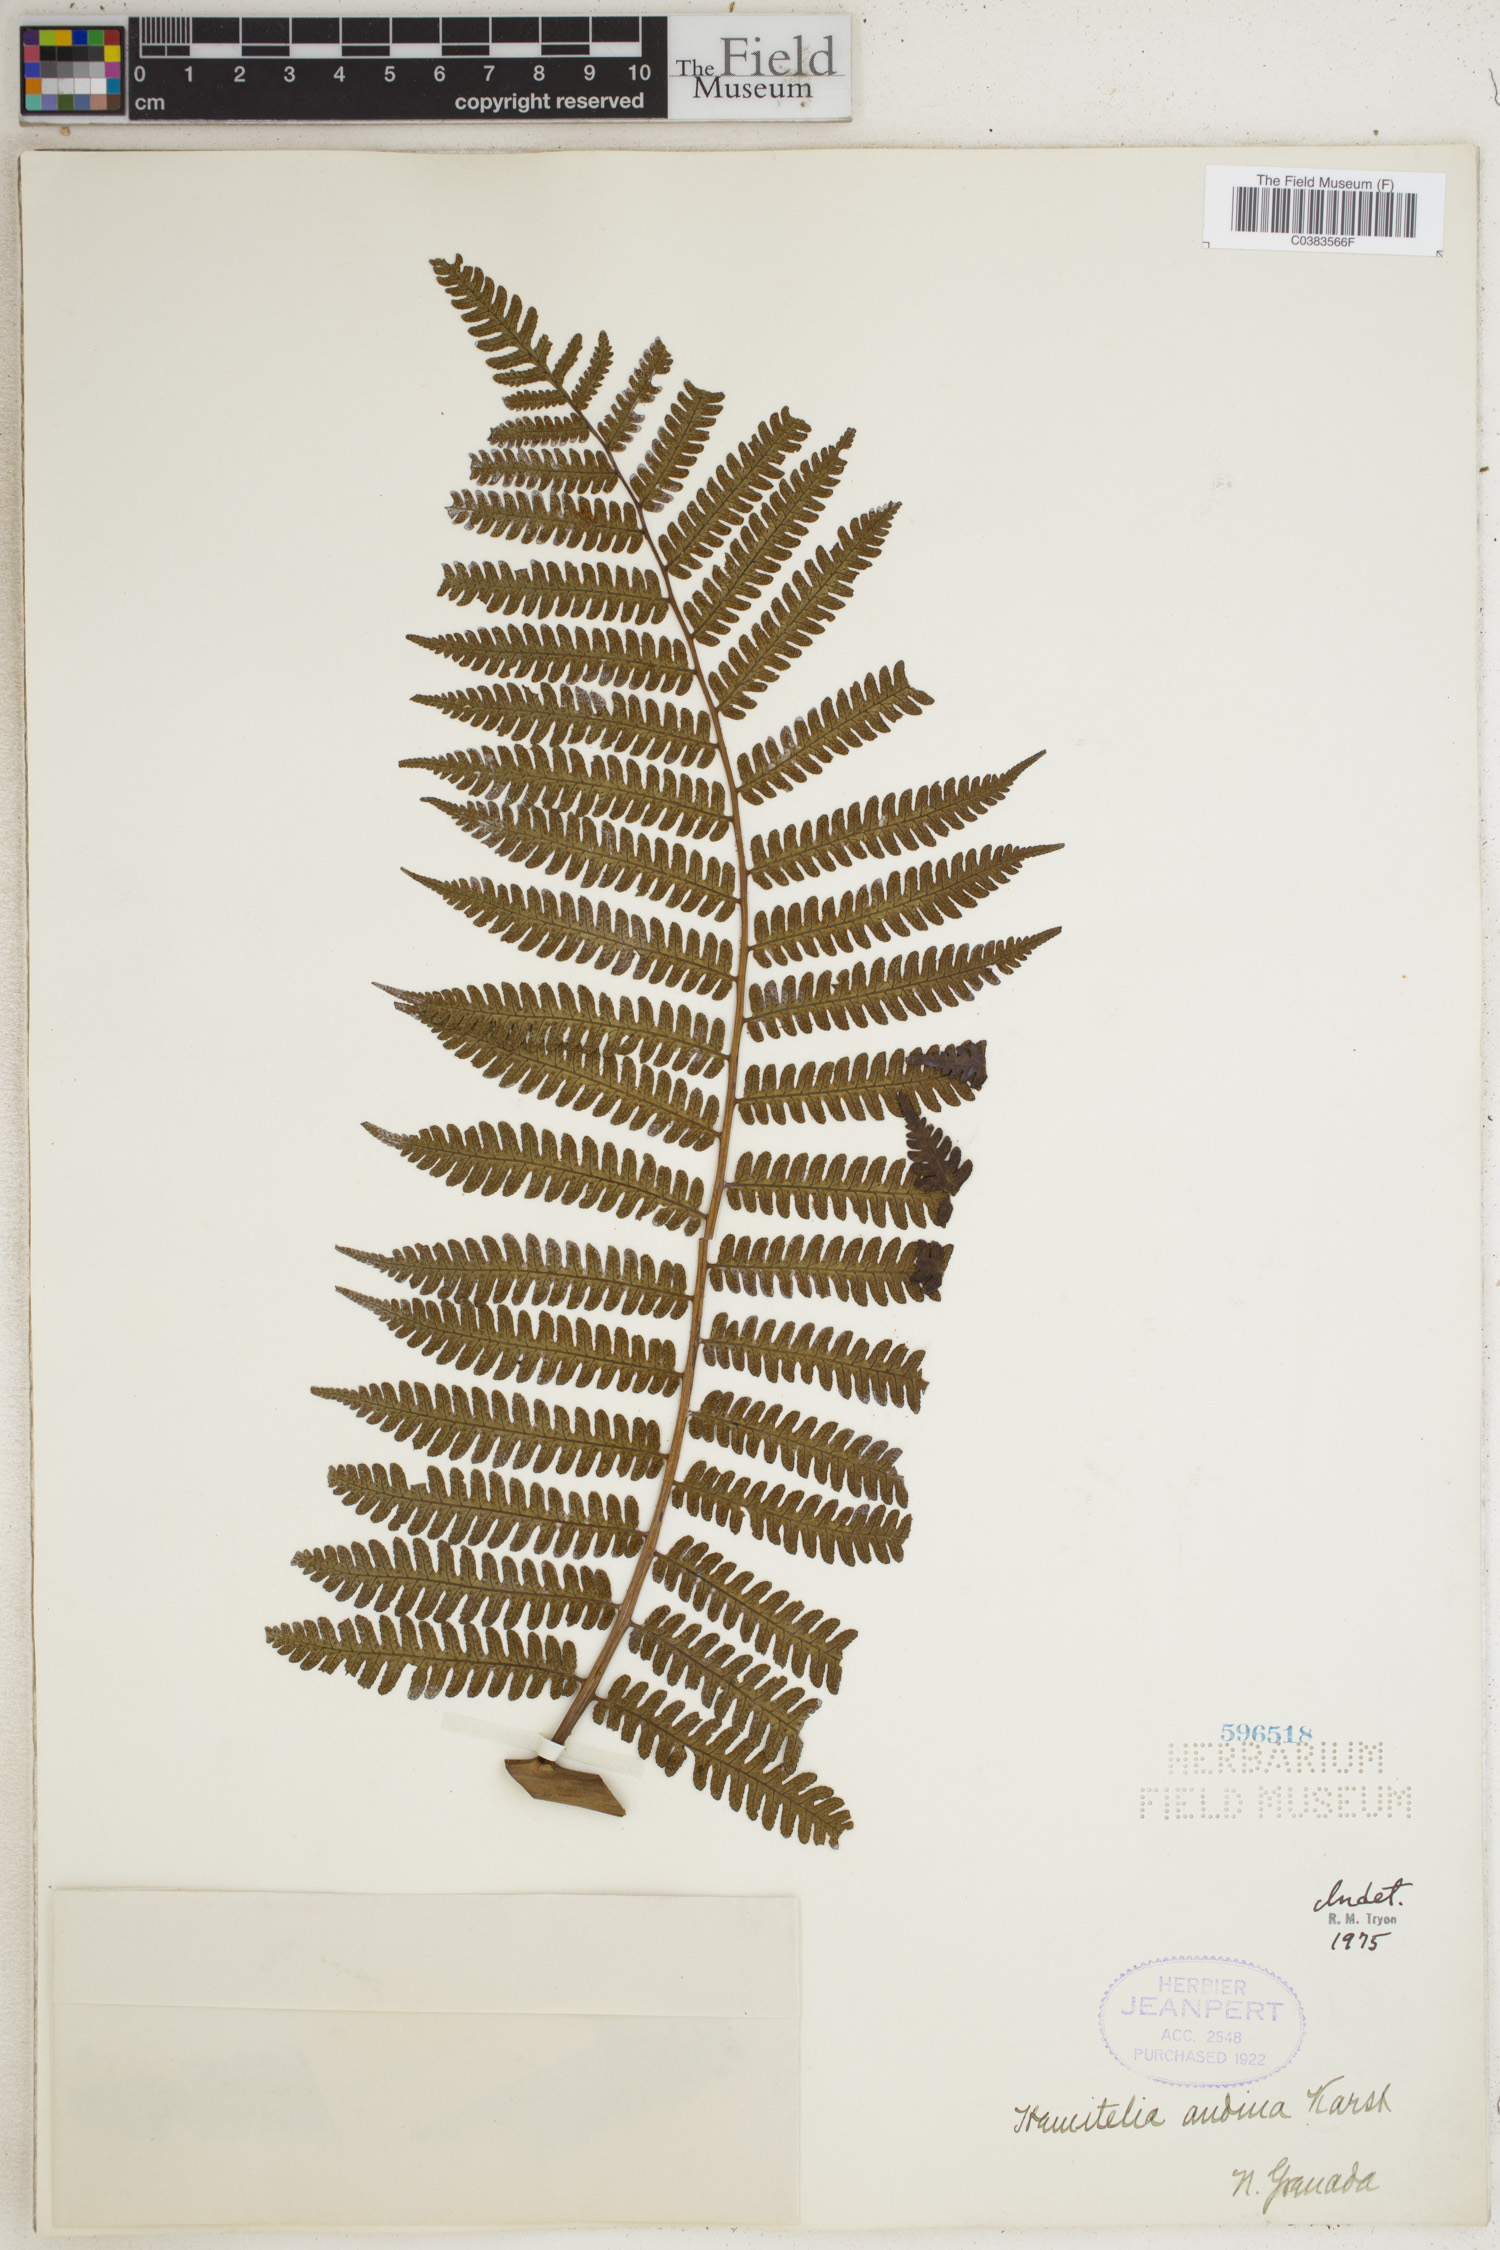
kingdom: Plantae
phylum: Tracheophyta
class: Polypodiopsida
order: Cyatheales
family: Cyatheaceae
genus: Cyathea
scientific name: Cyathea lindigii
